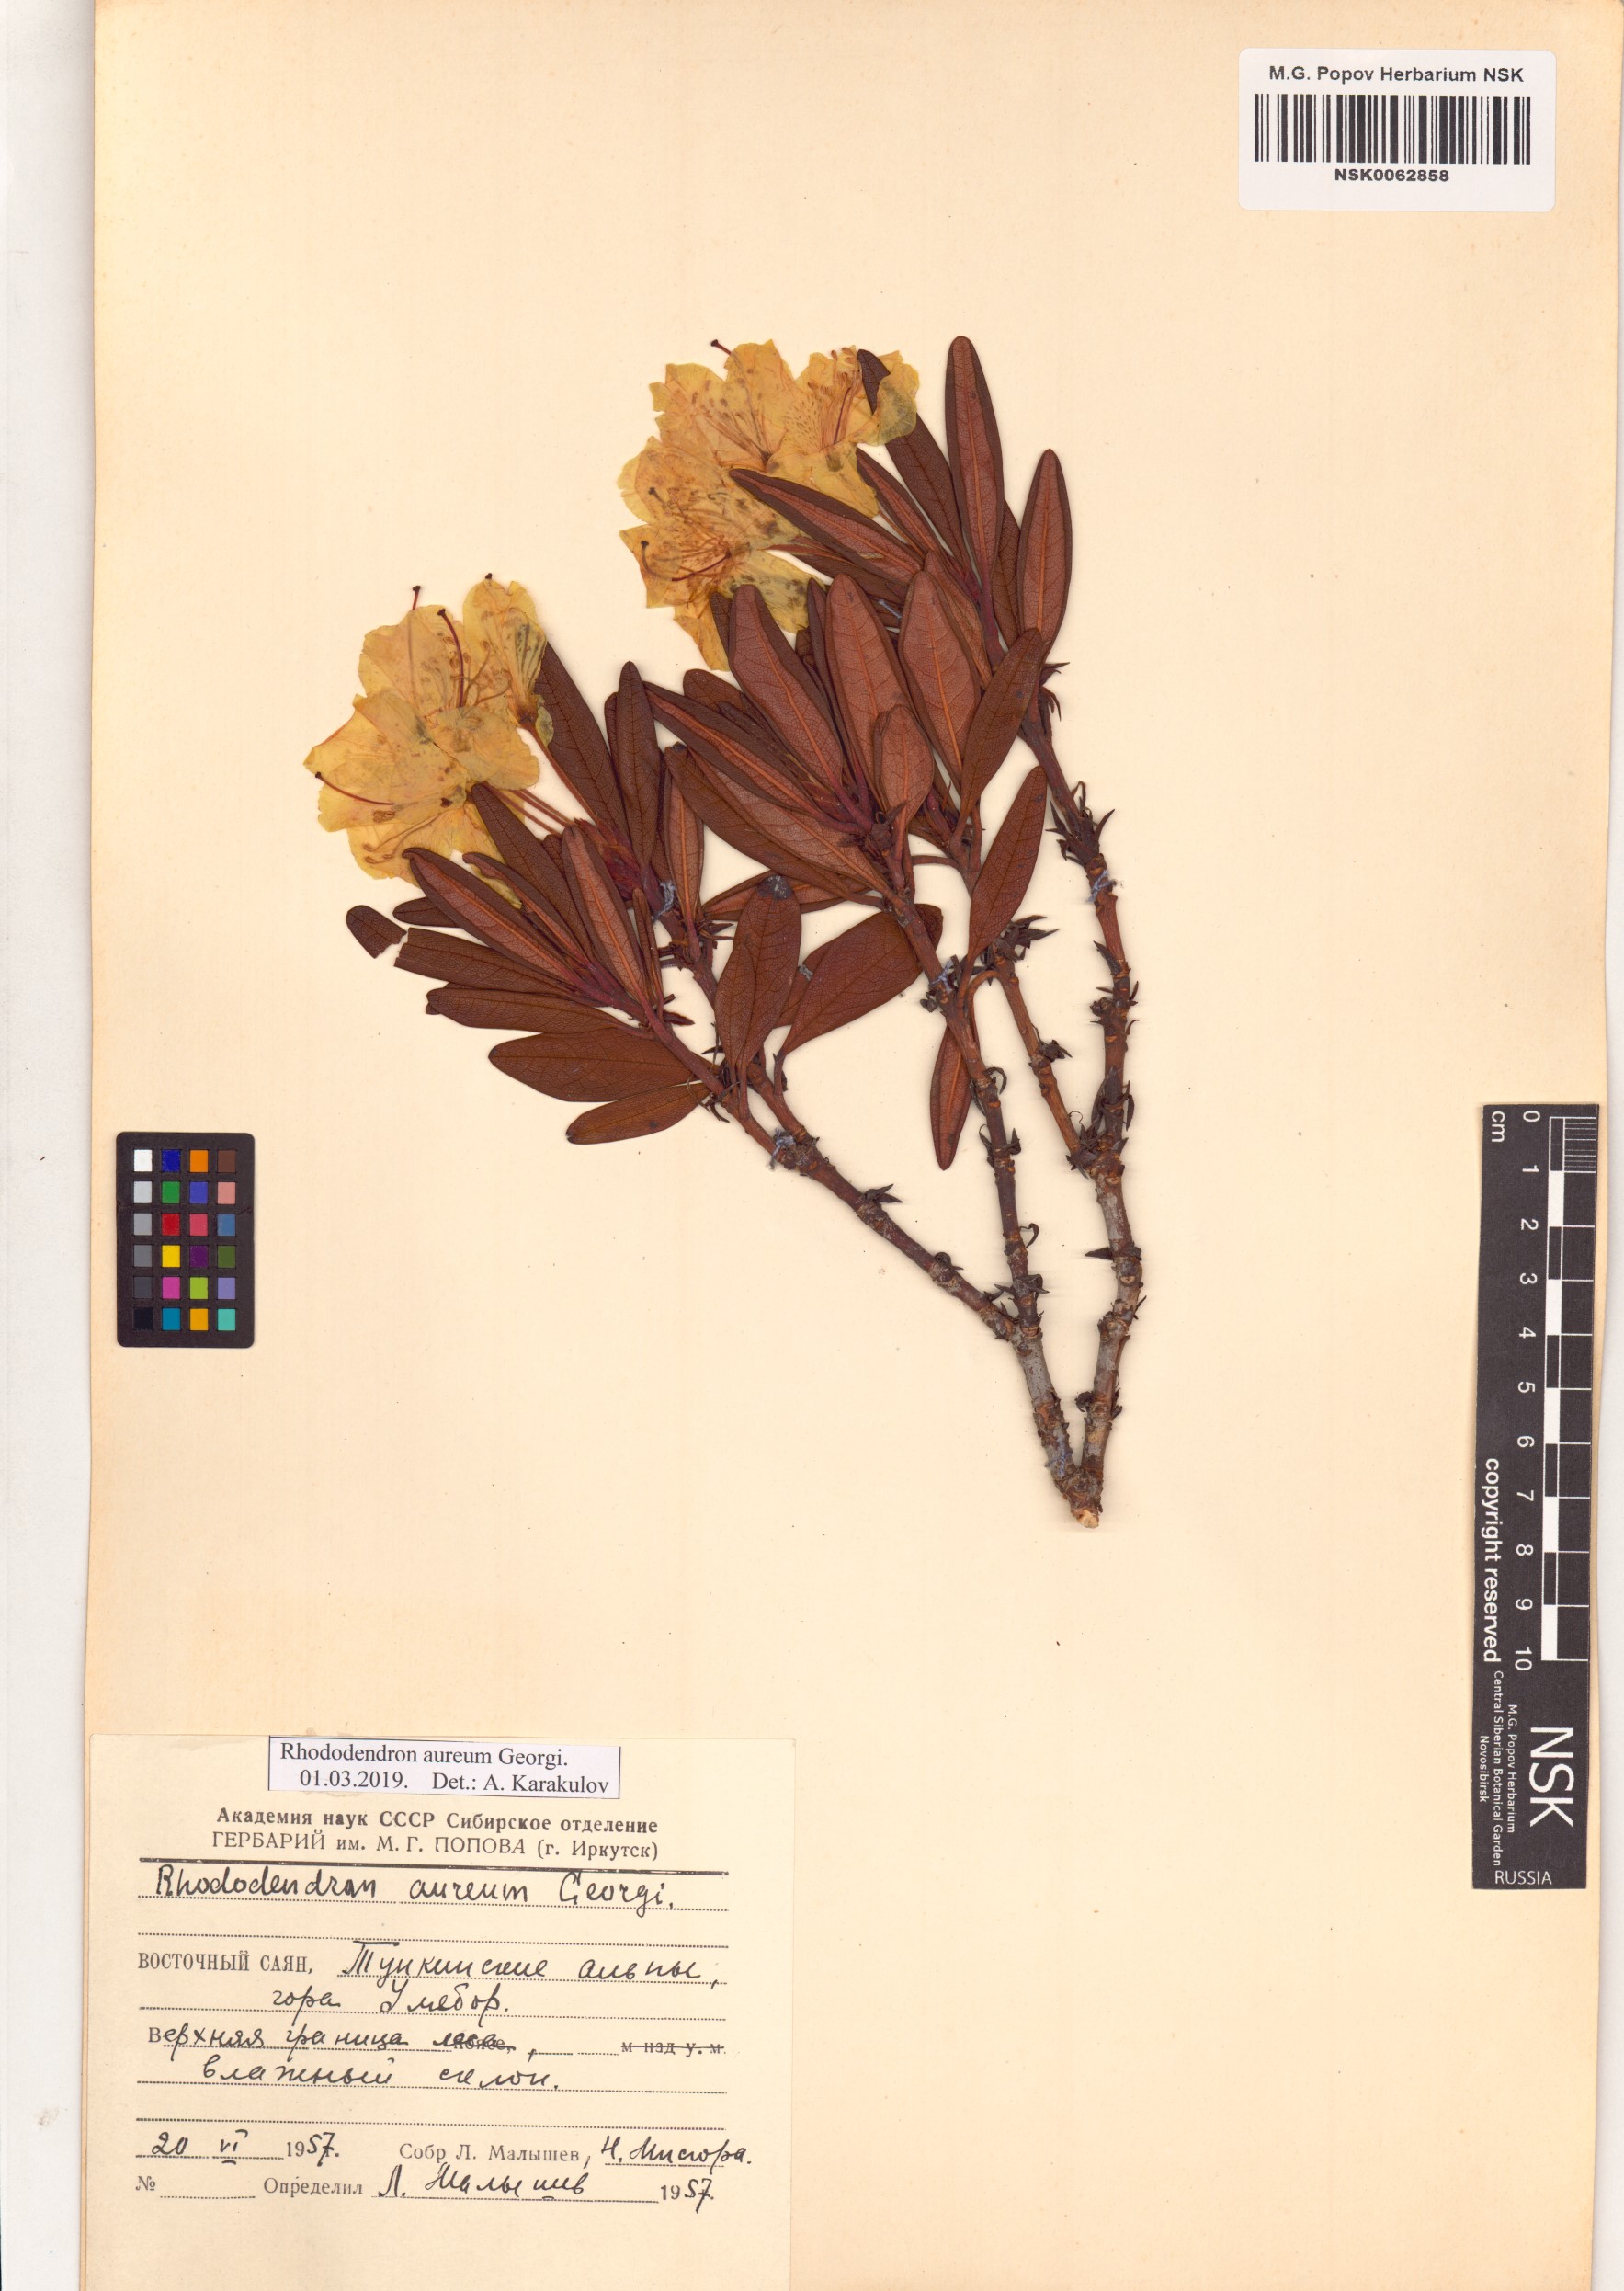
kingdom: Plantae
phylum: Tracheophyta
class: Magnoliopsida
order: Ericales
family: Ericaceae
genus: Rhododendron
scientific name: Rhododendron aureum
